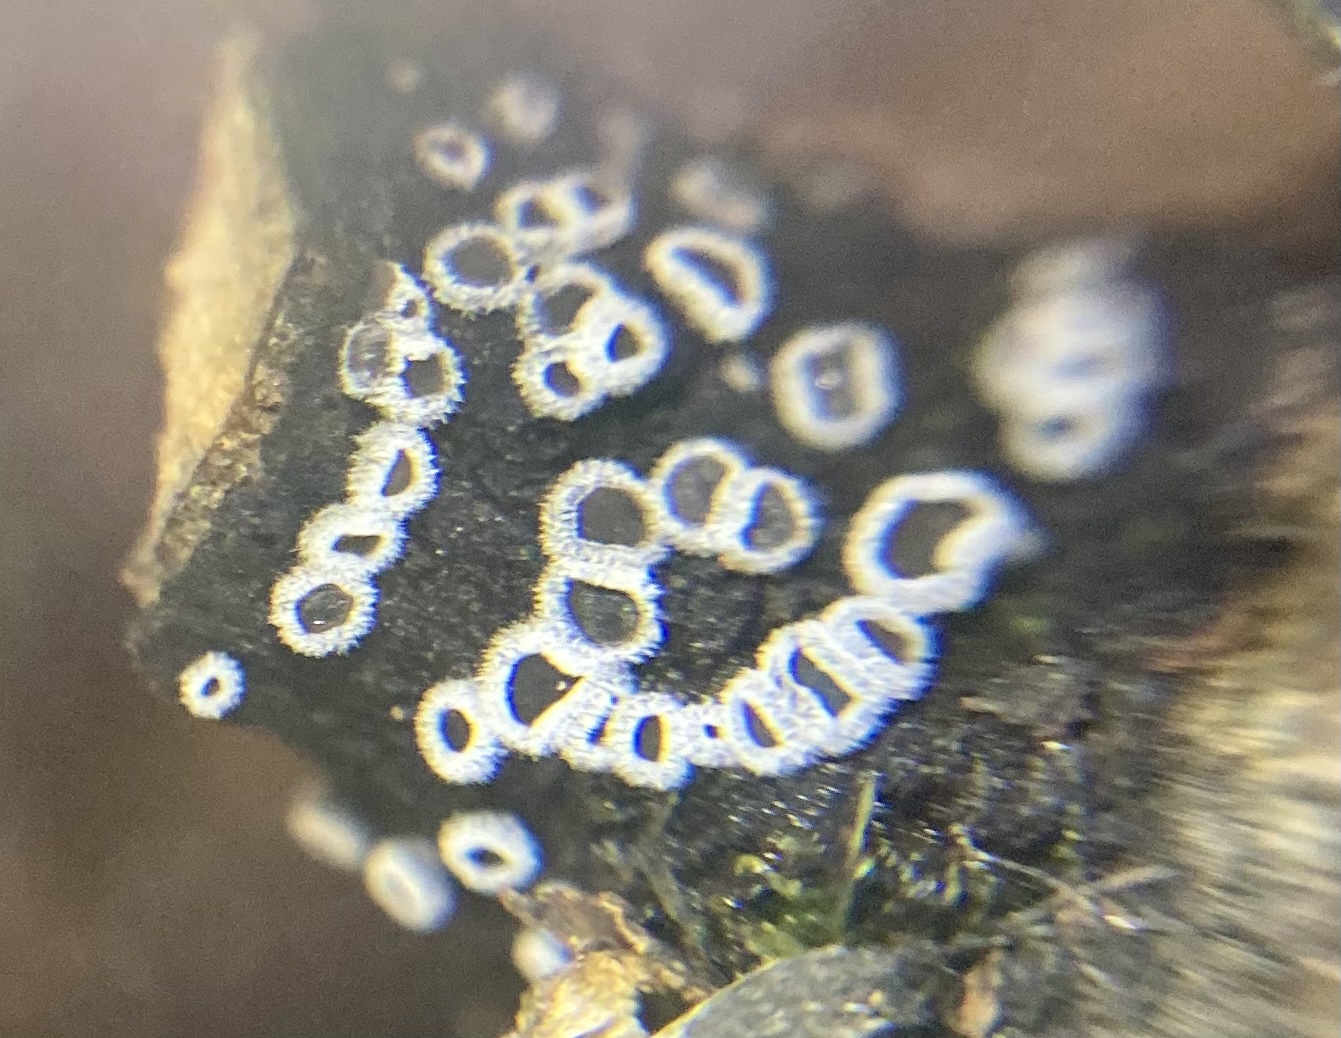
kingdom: Fungi
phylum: Basidiomycota
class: Agaricomycetes
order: Agaricales
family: Niaceae
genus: Lachnella
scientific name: Lachnella alboviolascens
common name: grå frynserede
